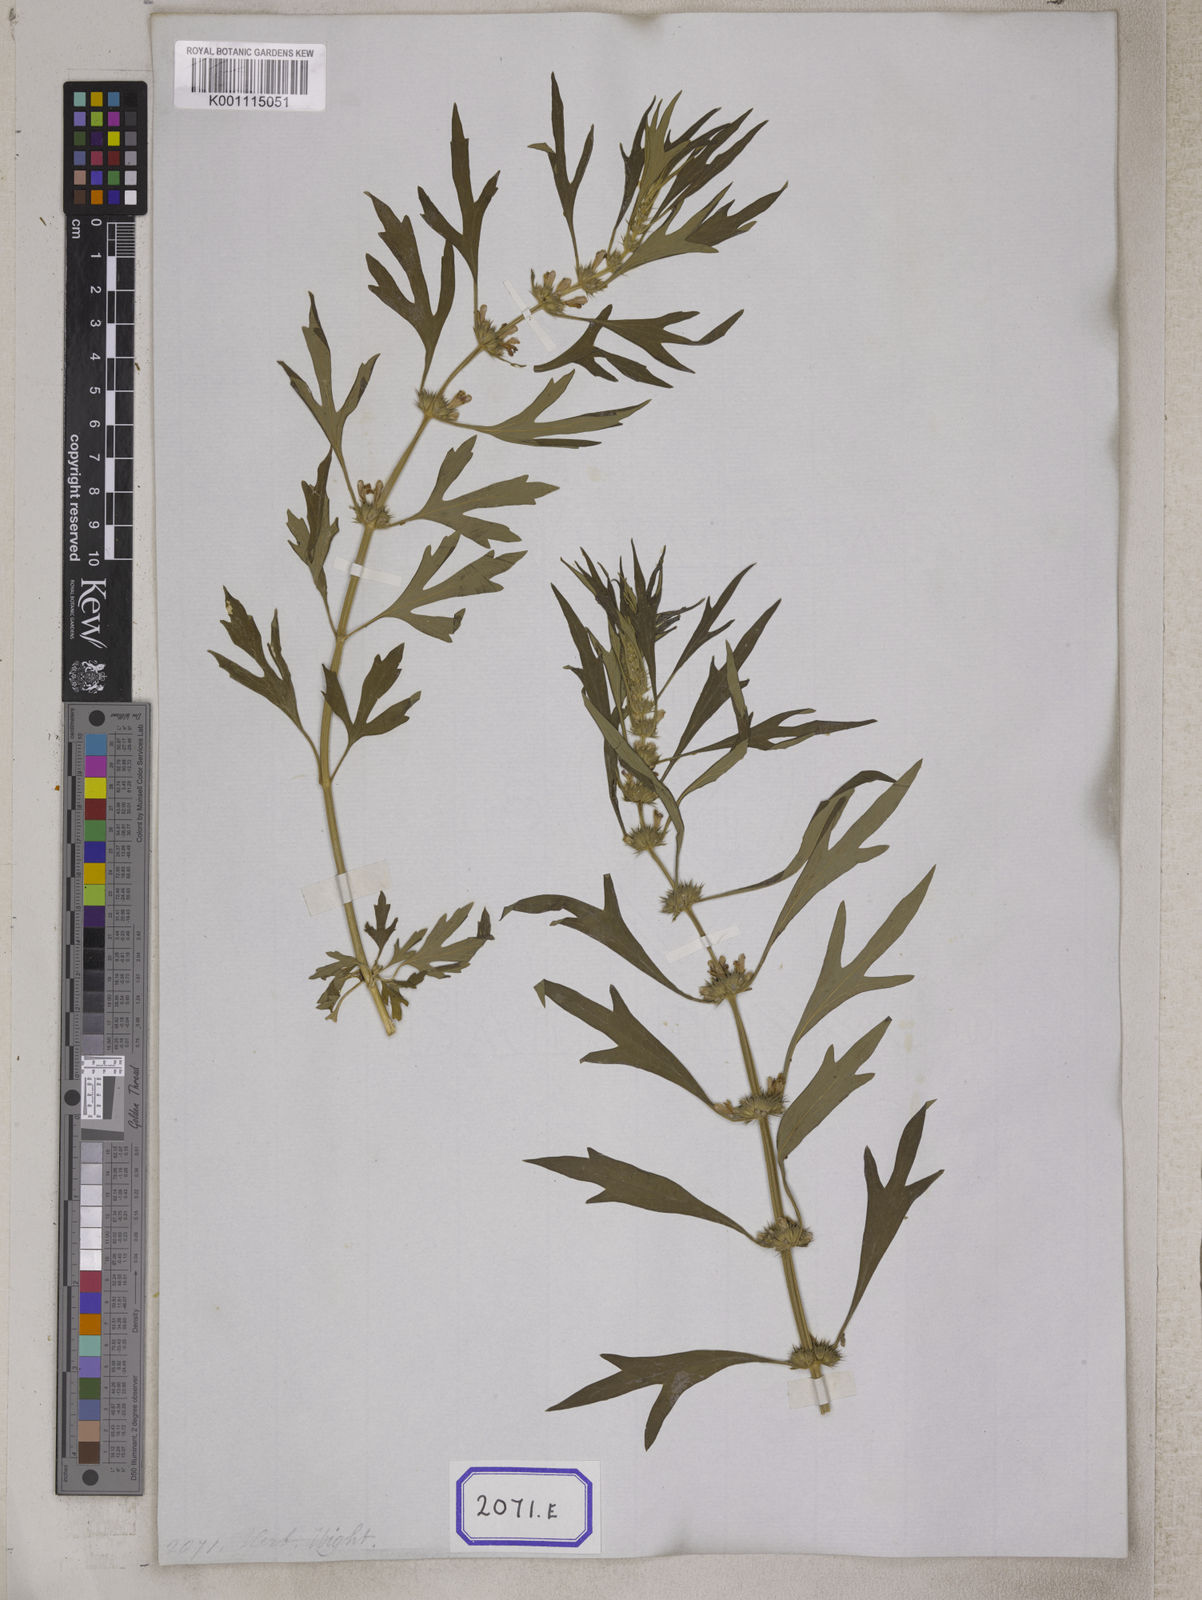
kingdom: Plantae
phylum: Tracheophyta
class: Magnoliopsida
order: Lamiales
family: Lamiaceae
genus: Leonurus
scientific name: Leonurus sibiricus
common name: Honeyweed
